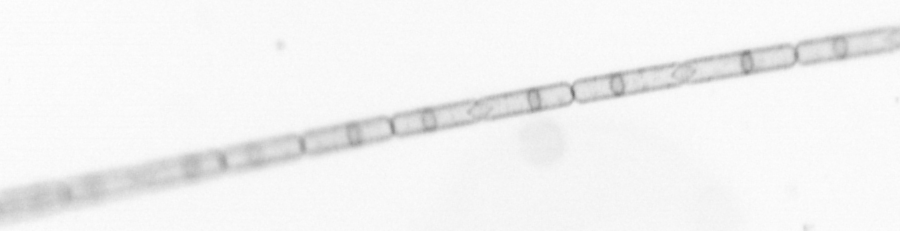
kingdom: Chromista
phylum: Ochrophyta
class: Bacillariophyceae
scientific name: Bacillariophyceae
